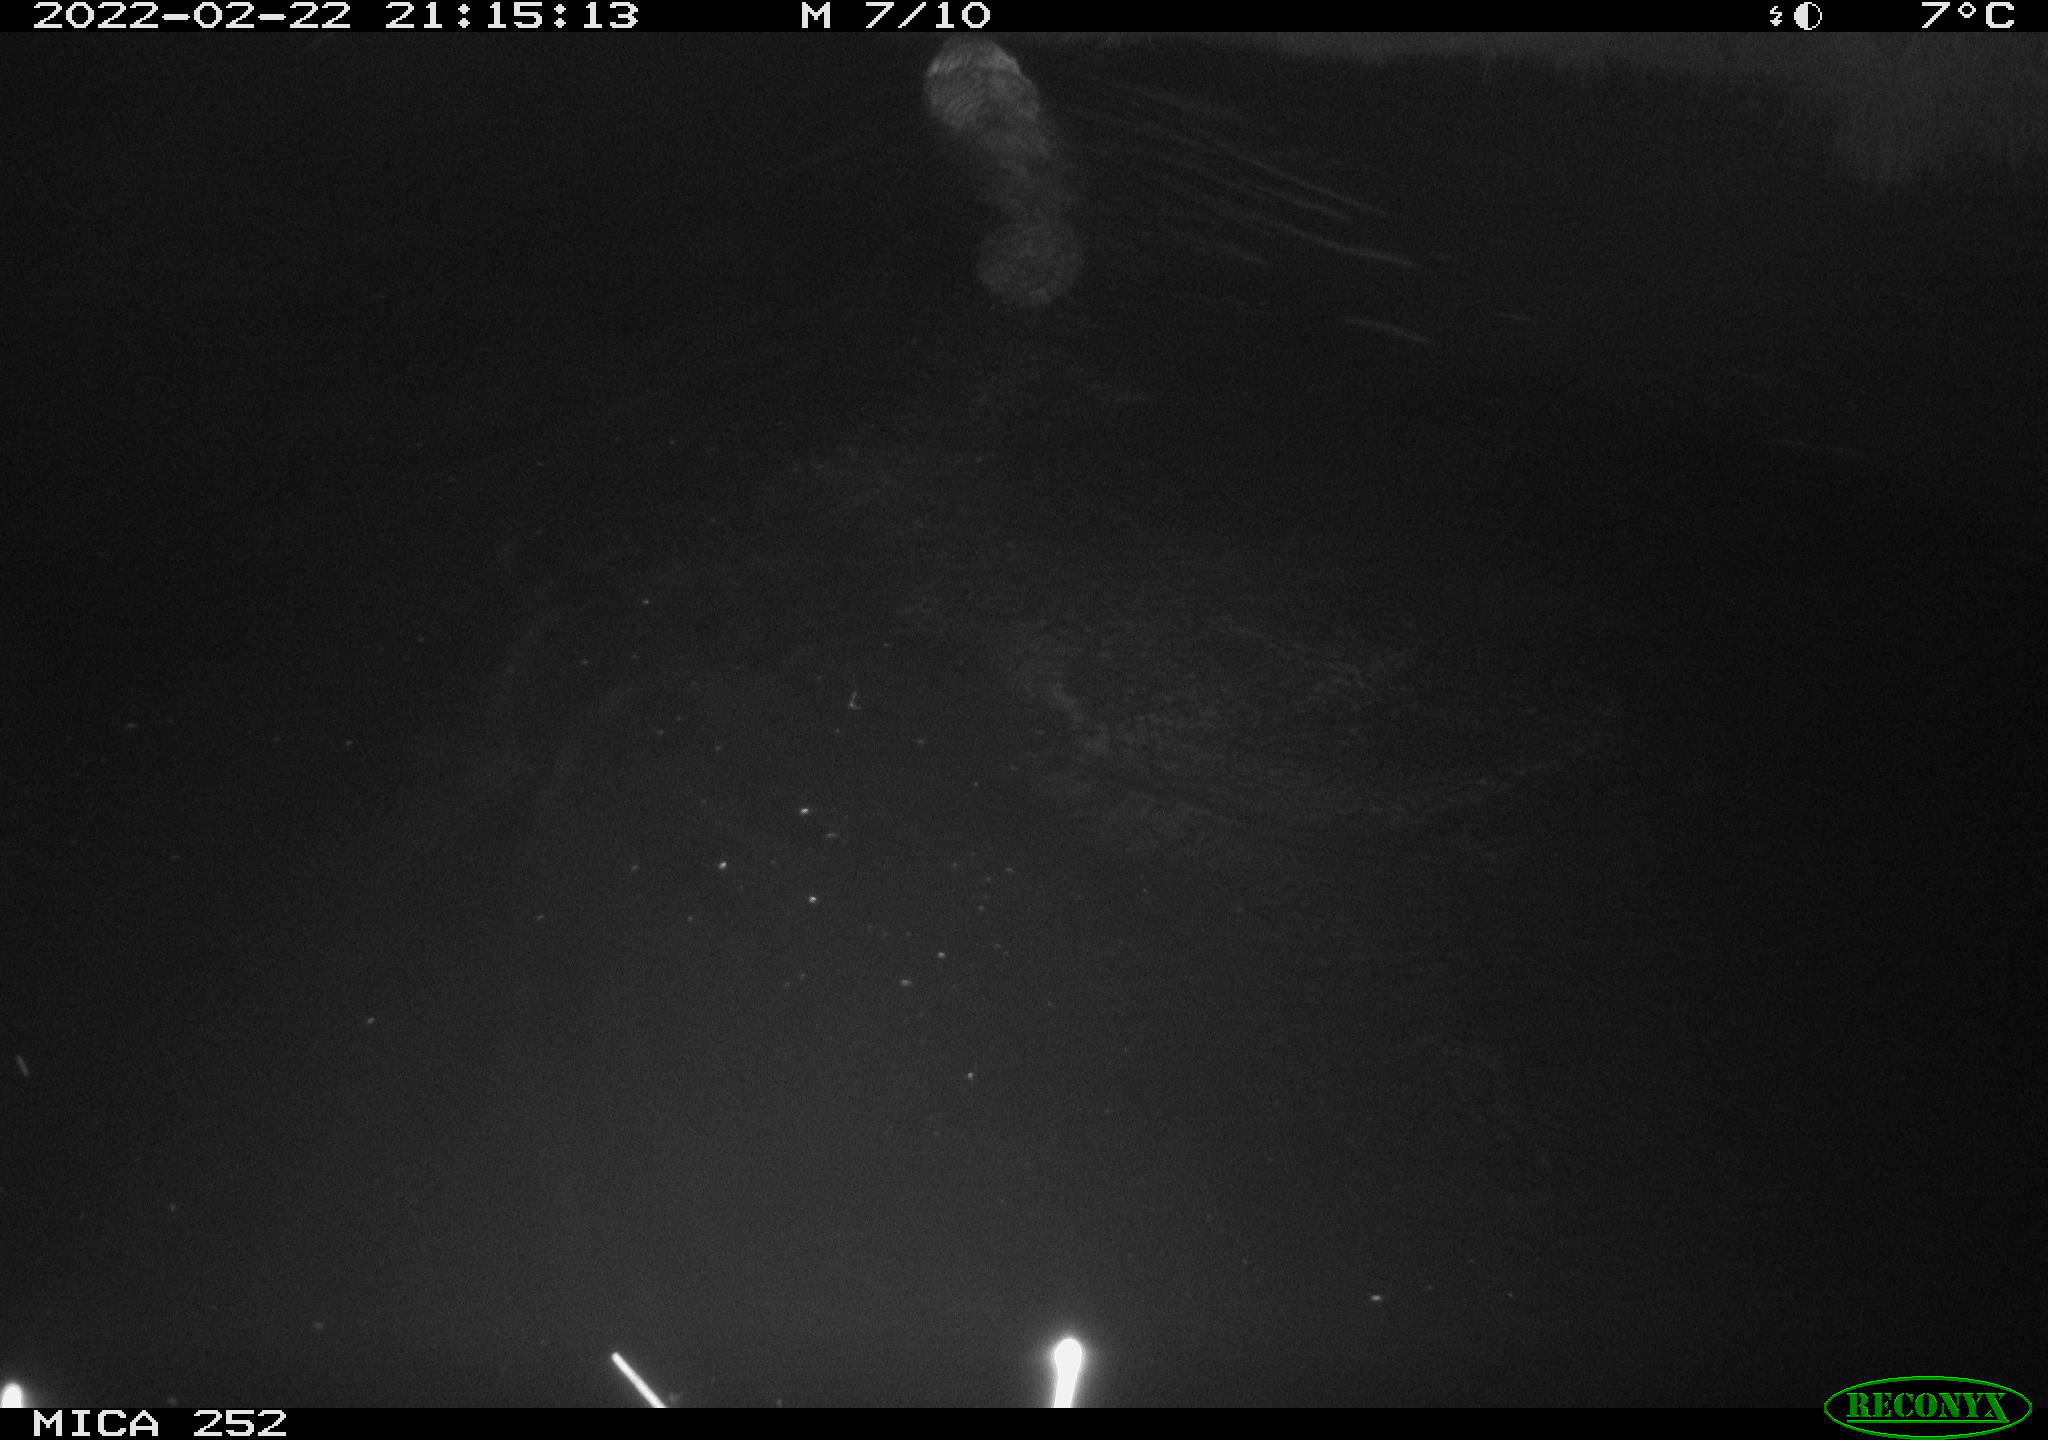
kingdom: Animalia
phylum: Chordata
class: Mammalia
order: Rodentia
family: Castoridae
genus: Castor
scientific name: Castor fiber
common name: Eurasian beaver
